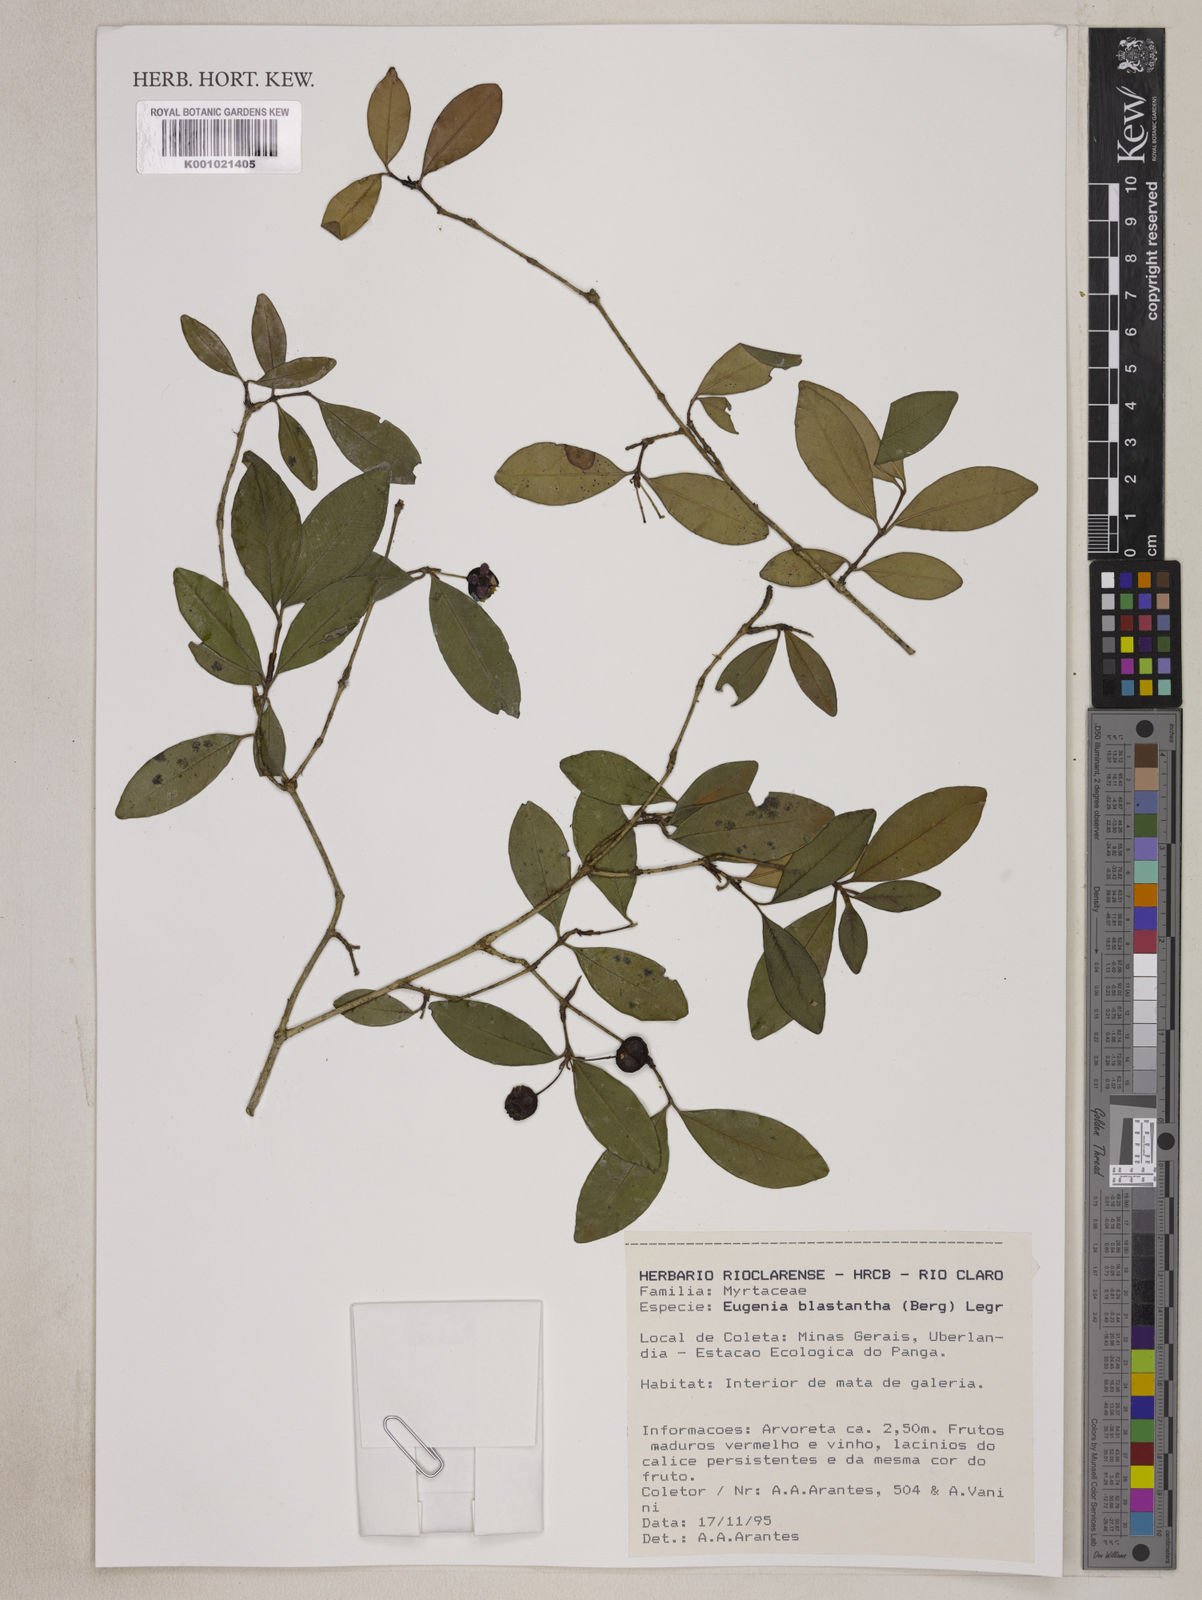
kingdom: Plantae
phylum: Tracheophyta
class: Magnoliopsida
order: Myrtales
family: Myrtaceae
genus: Eugenia
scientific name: Eugenia blastantha
